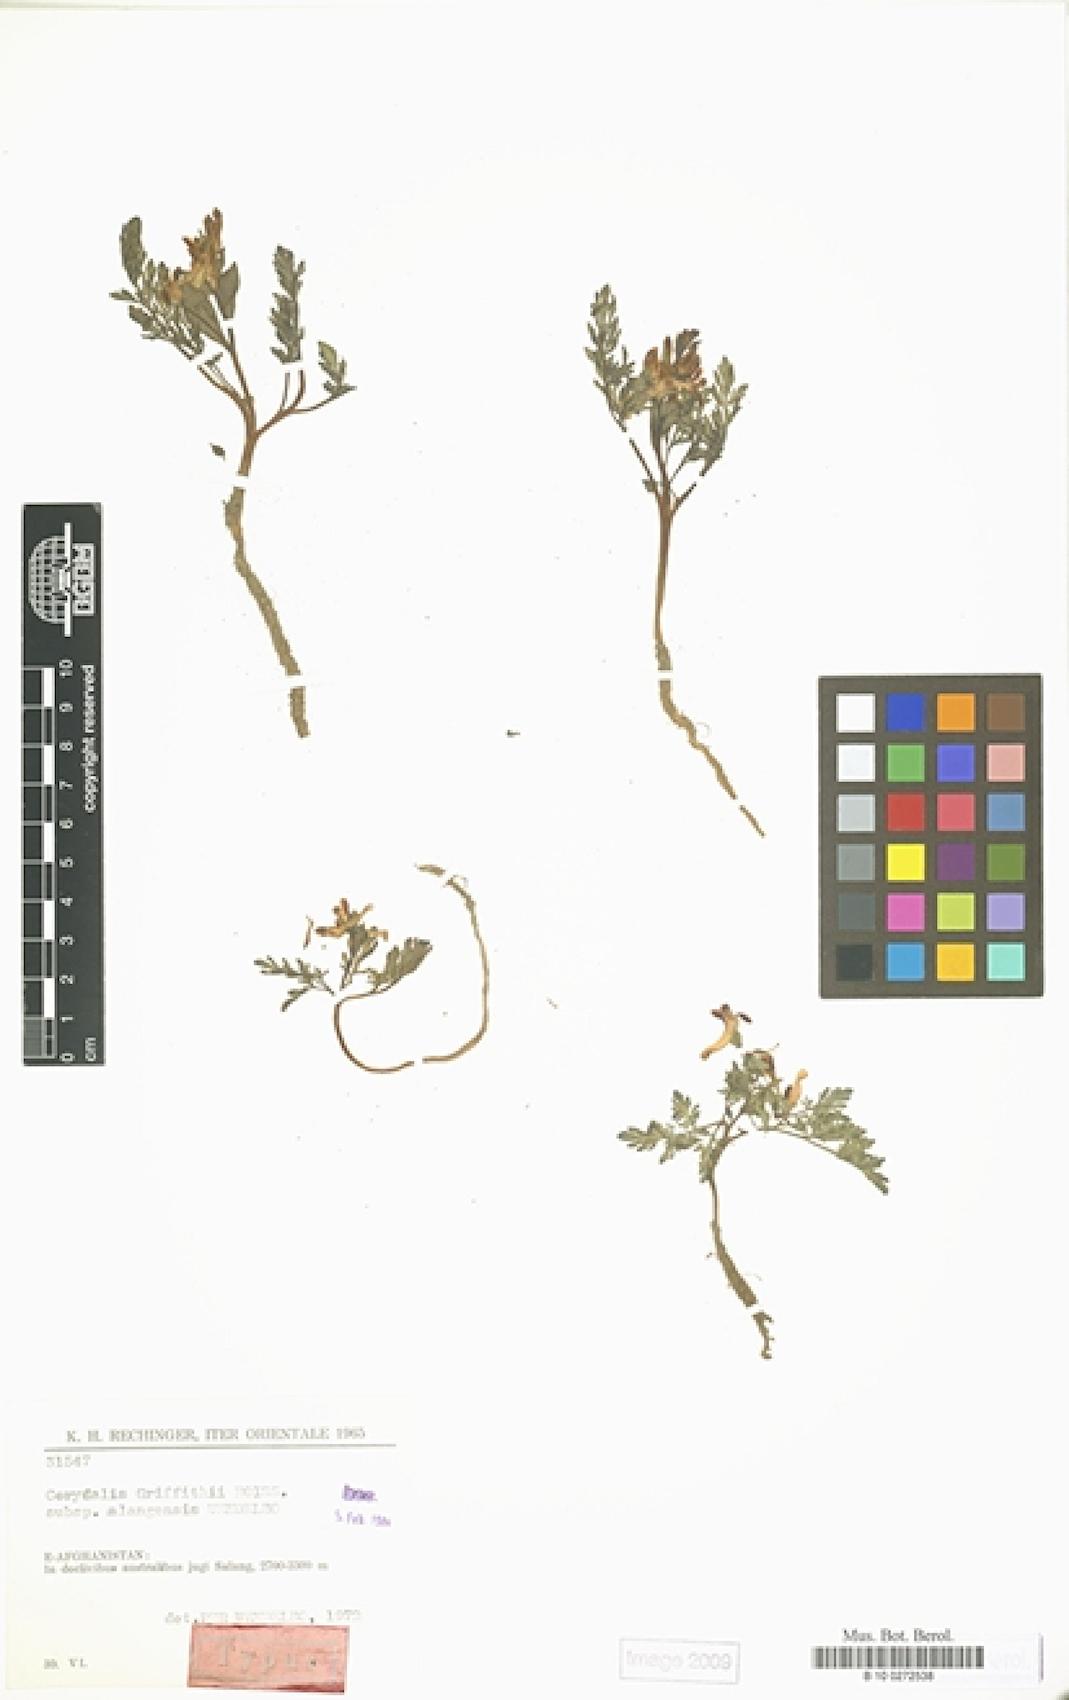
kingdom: Plantae
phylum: Tracheophyta
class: Magnoliopsida
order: Ranunculales
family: Papaveraceae
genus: Corydalis
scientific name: Corydalis griffithii
